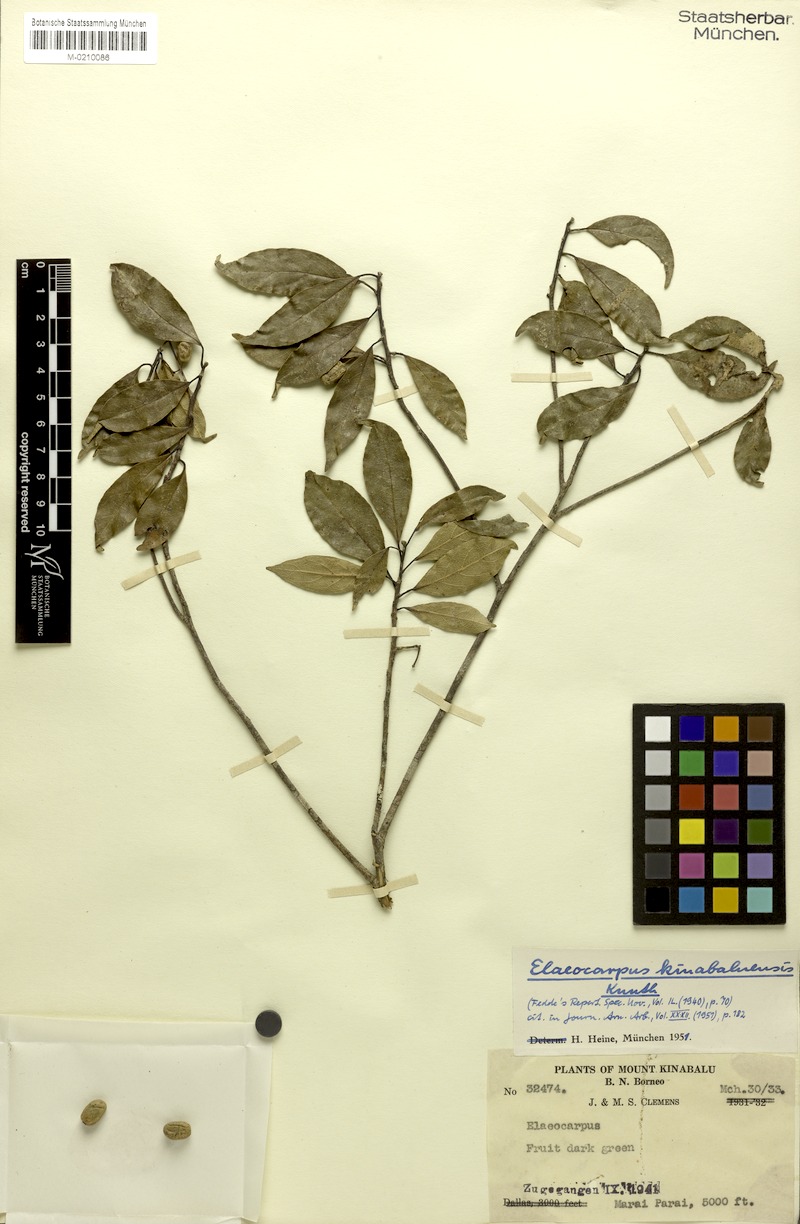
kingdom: Plantae
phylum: Tracheophyta
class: Magnoliopsida
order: Oxalidales
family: Elaeocarpaceae
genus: Elaeocarpus
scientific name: Elaeocarpus kinabaluensis
